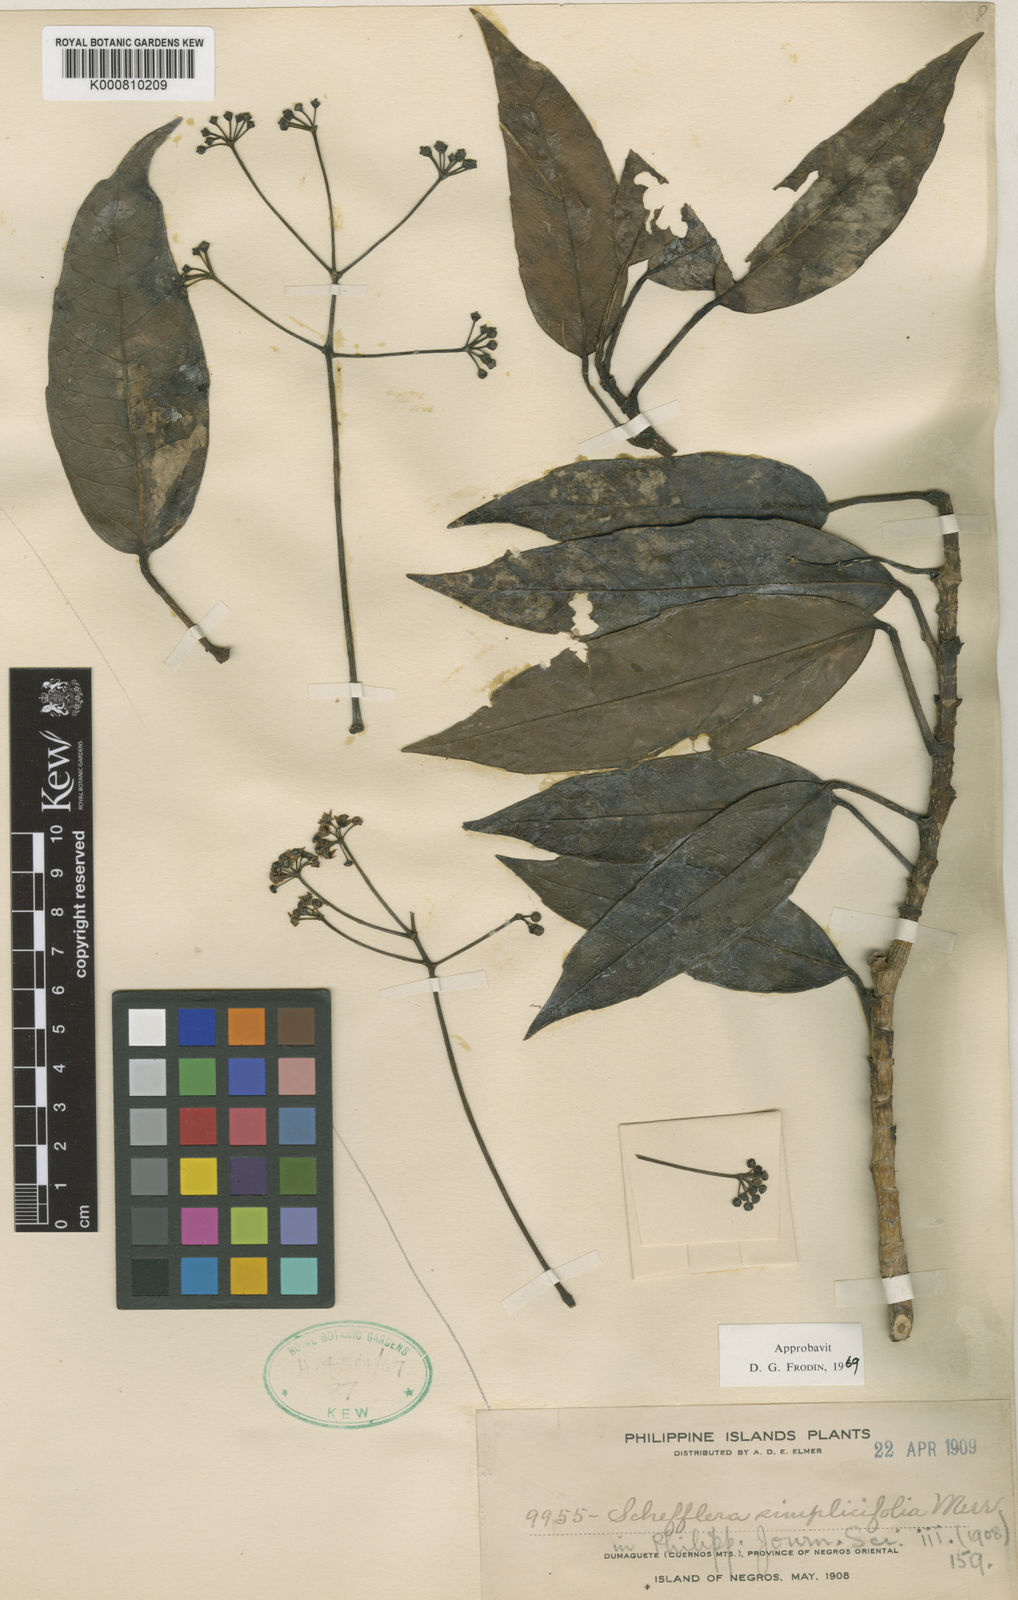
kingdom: Plantae
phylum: Tracheophyta
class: Magnoliopsida
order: Apiales
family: Araliaceae
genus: Heptapleurum
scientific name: Heptapleurum simplicifolium
